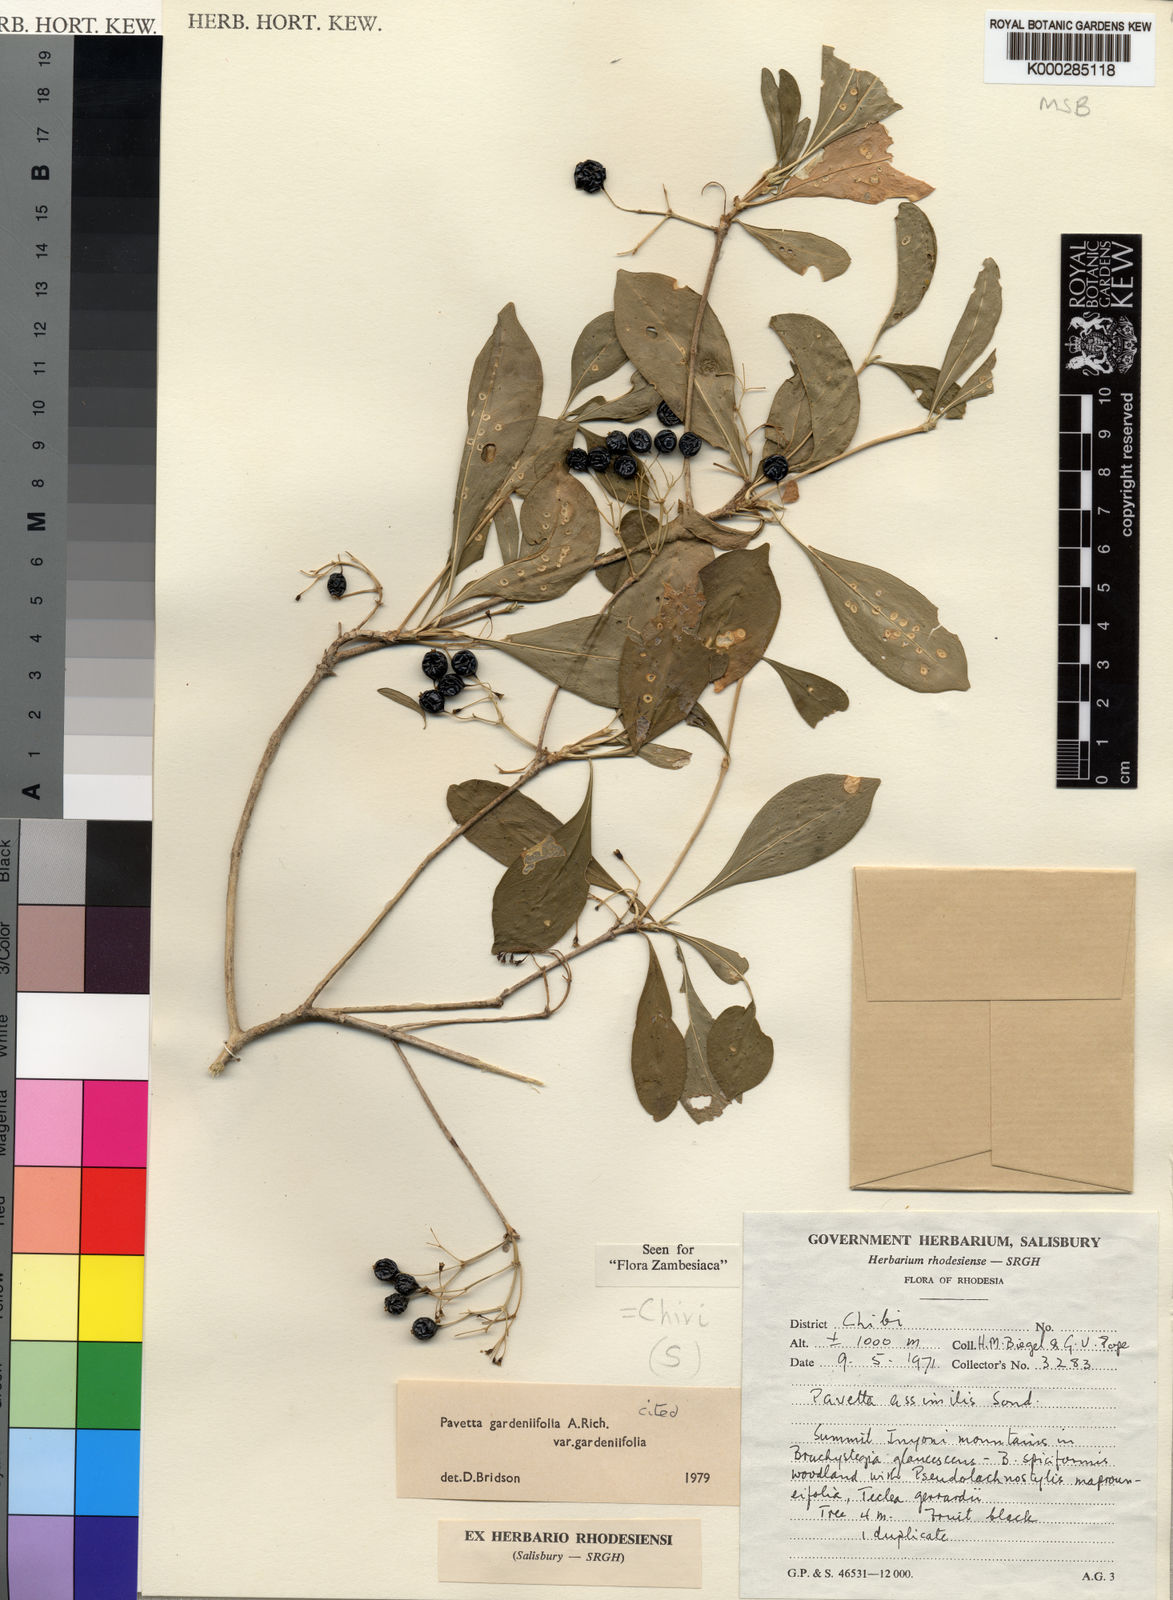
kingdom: Plantae
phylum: Tracheophyta
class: Magnoliopsida
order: Gentianales
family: Rubiaceae
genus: Pavetta
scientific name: Pavetta gardeniifolia
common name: Common brides-bush
